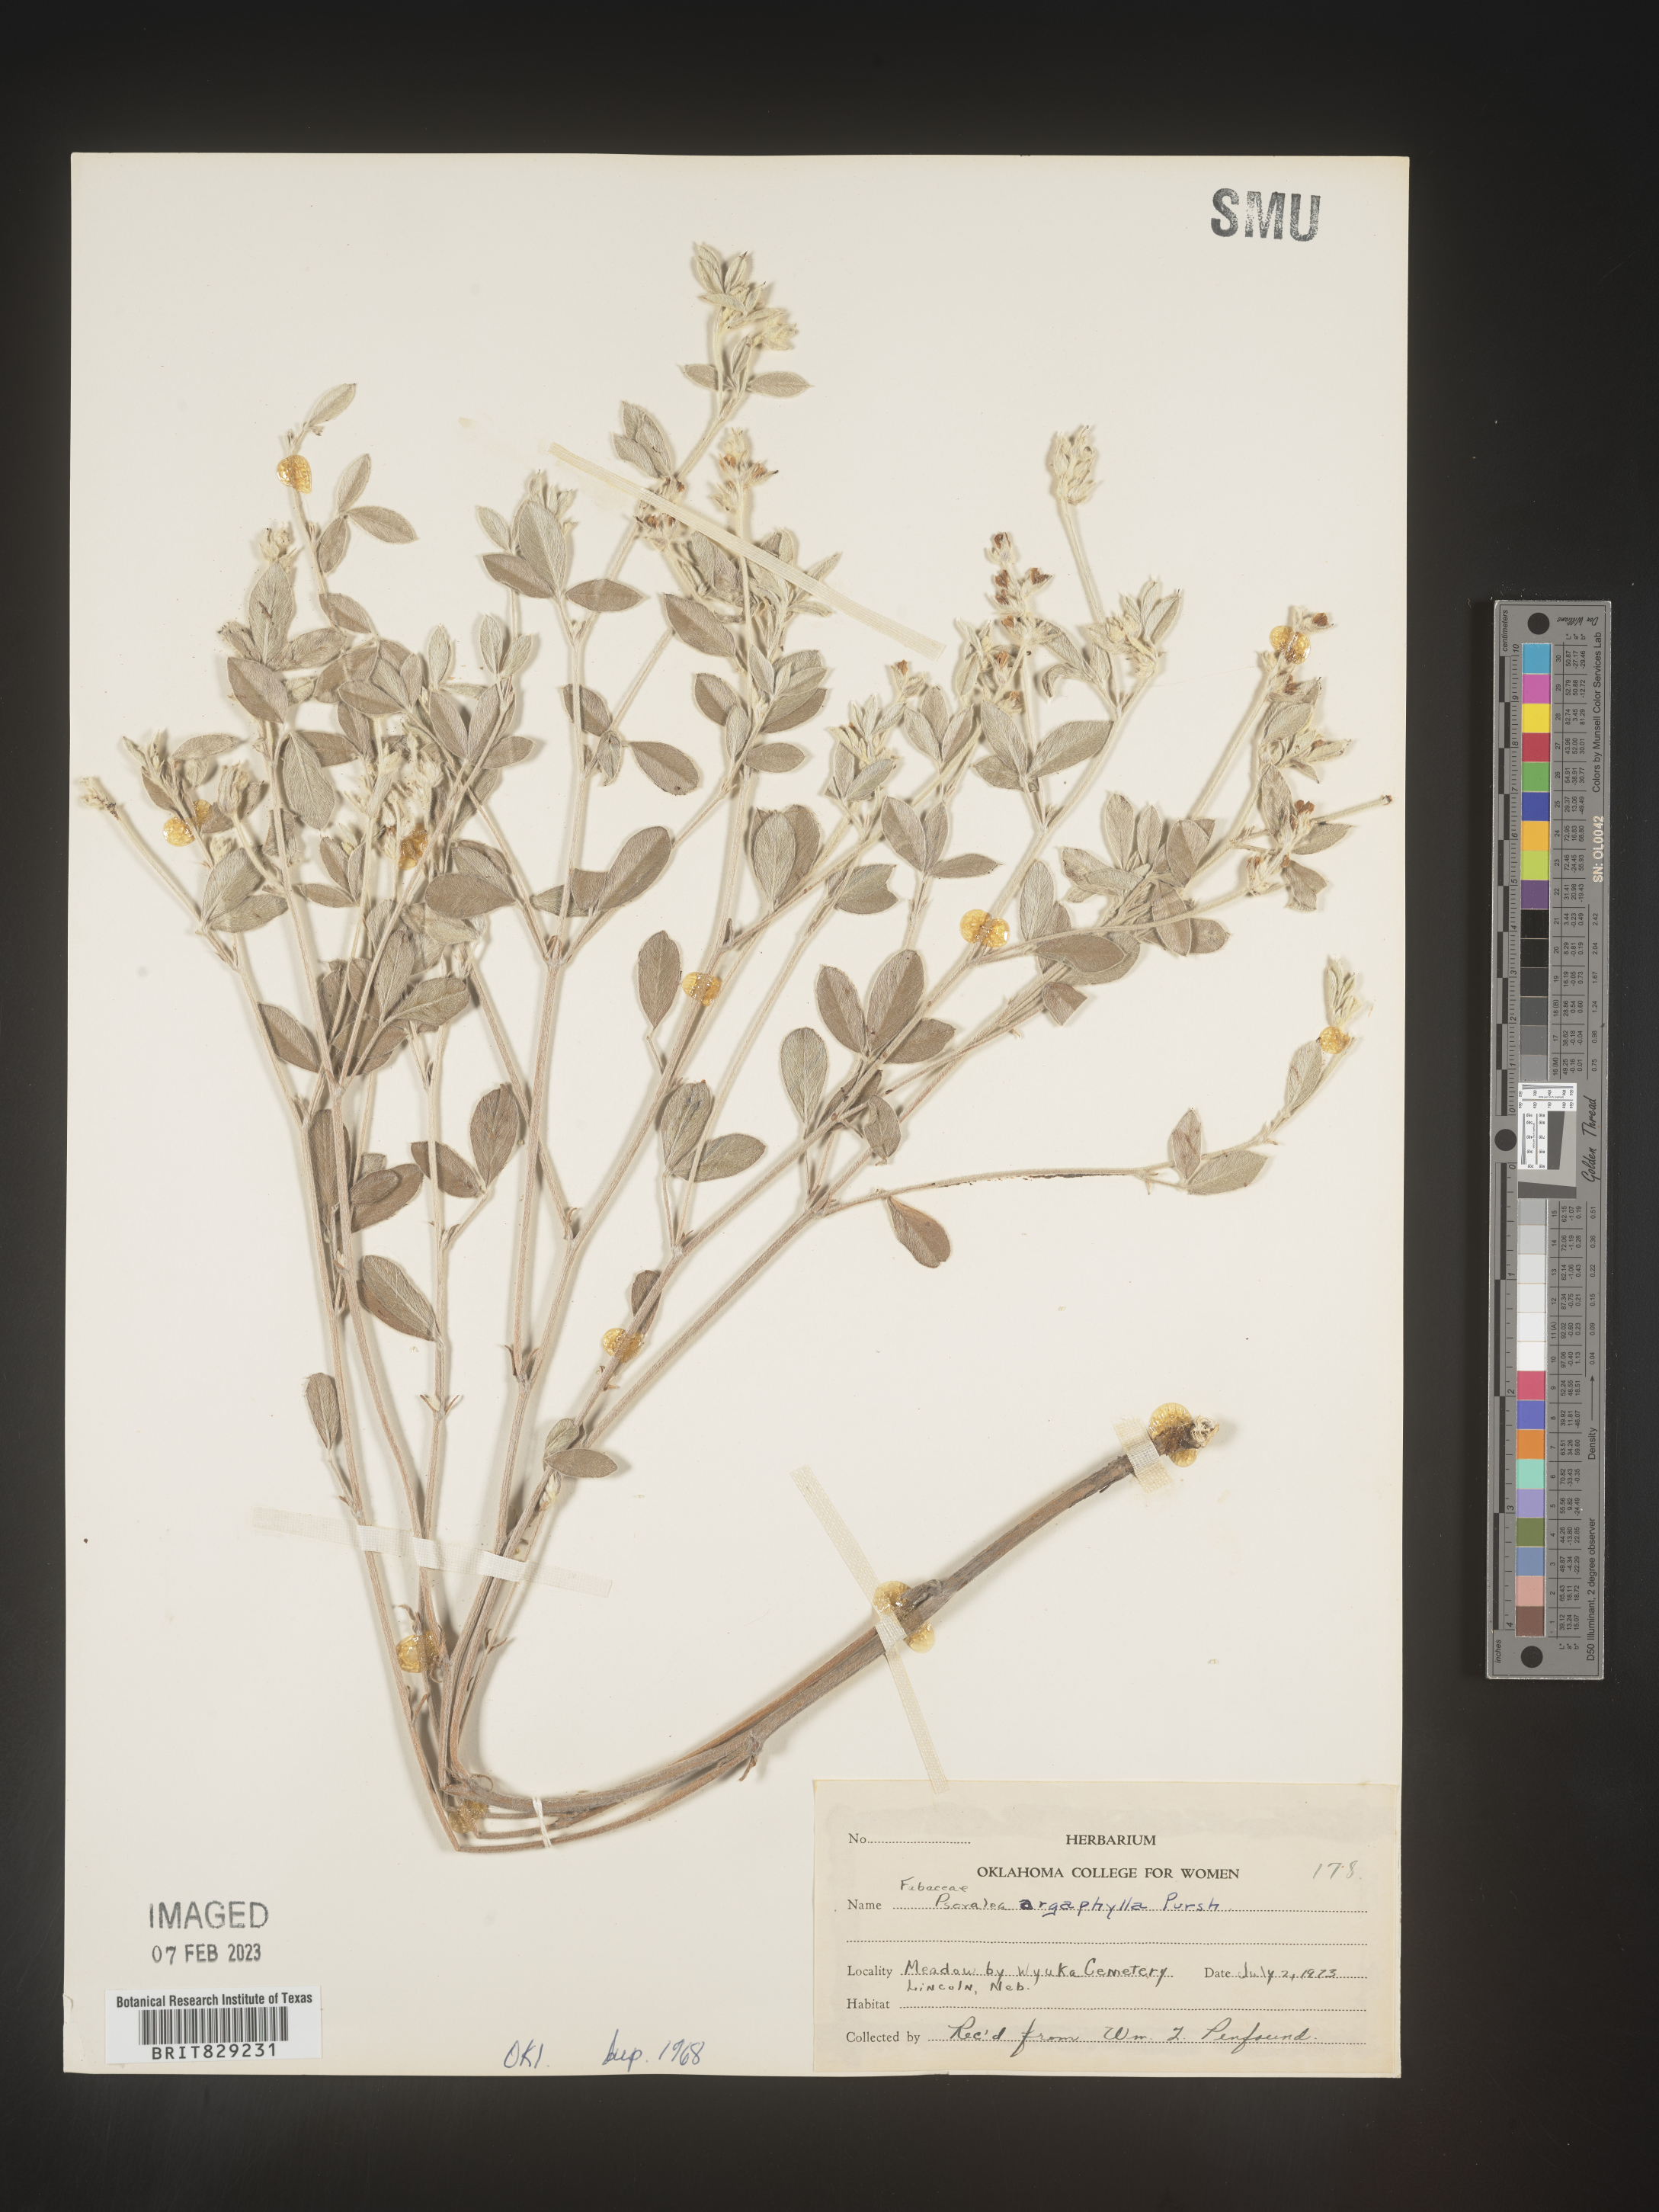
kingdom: Plantae
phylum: Tracheophyta
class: Magnoliopsida
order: Fabales
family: Fabaceae
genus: Pediomelum
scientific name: Pediomelum argophyllum
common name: Silver-leaved indian breadroot
